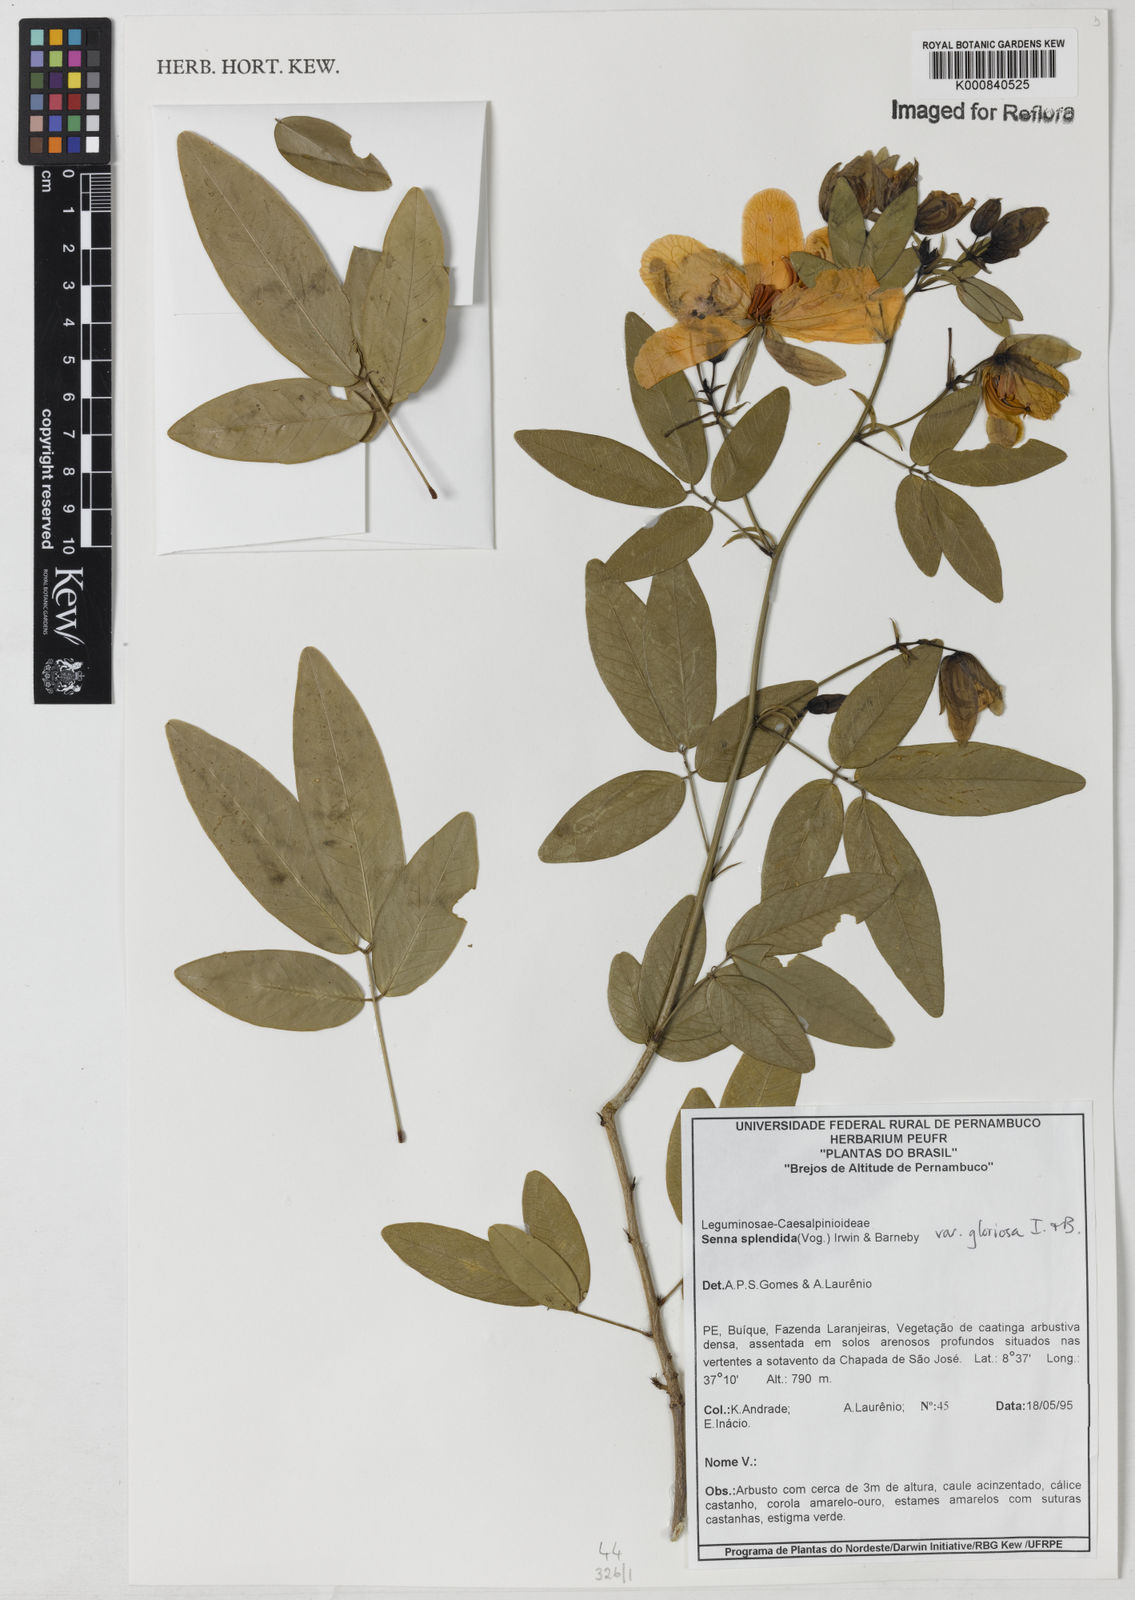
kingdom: Plantae
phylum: Tracheophyta
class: Magnoliopsida
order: Fabales
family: Fabaceae
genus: Senna
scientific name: Senna splendida
